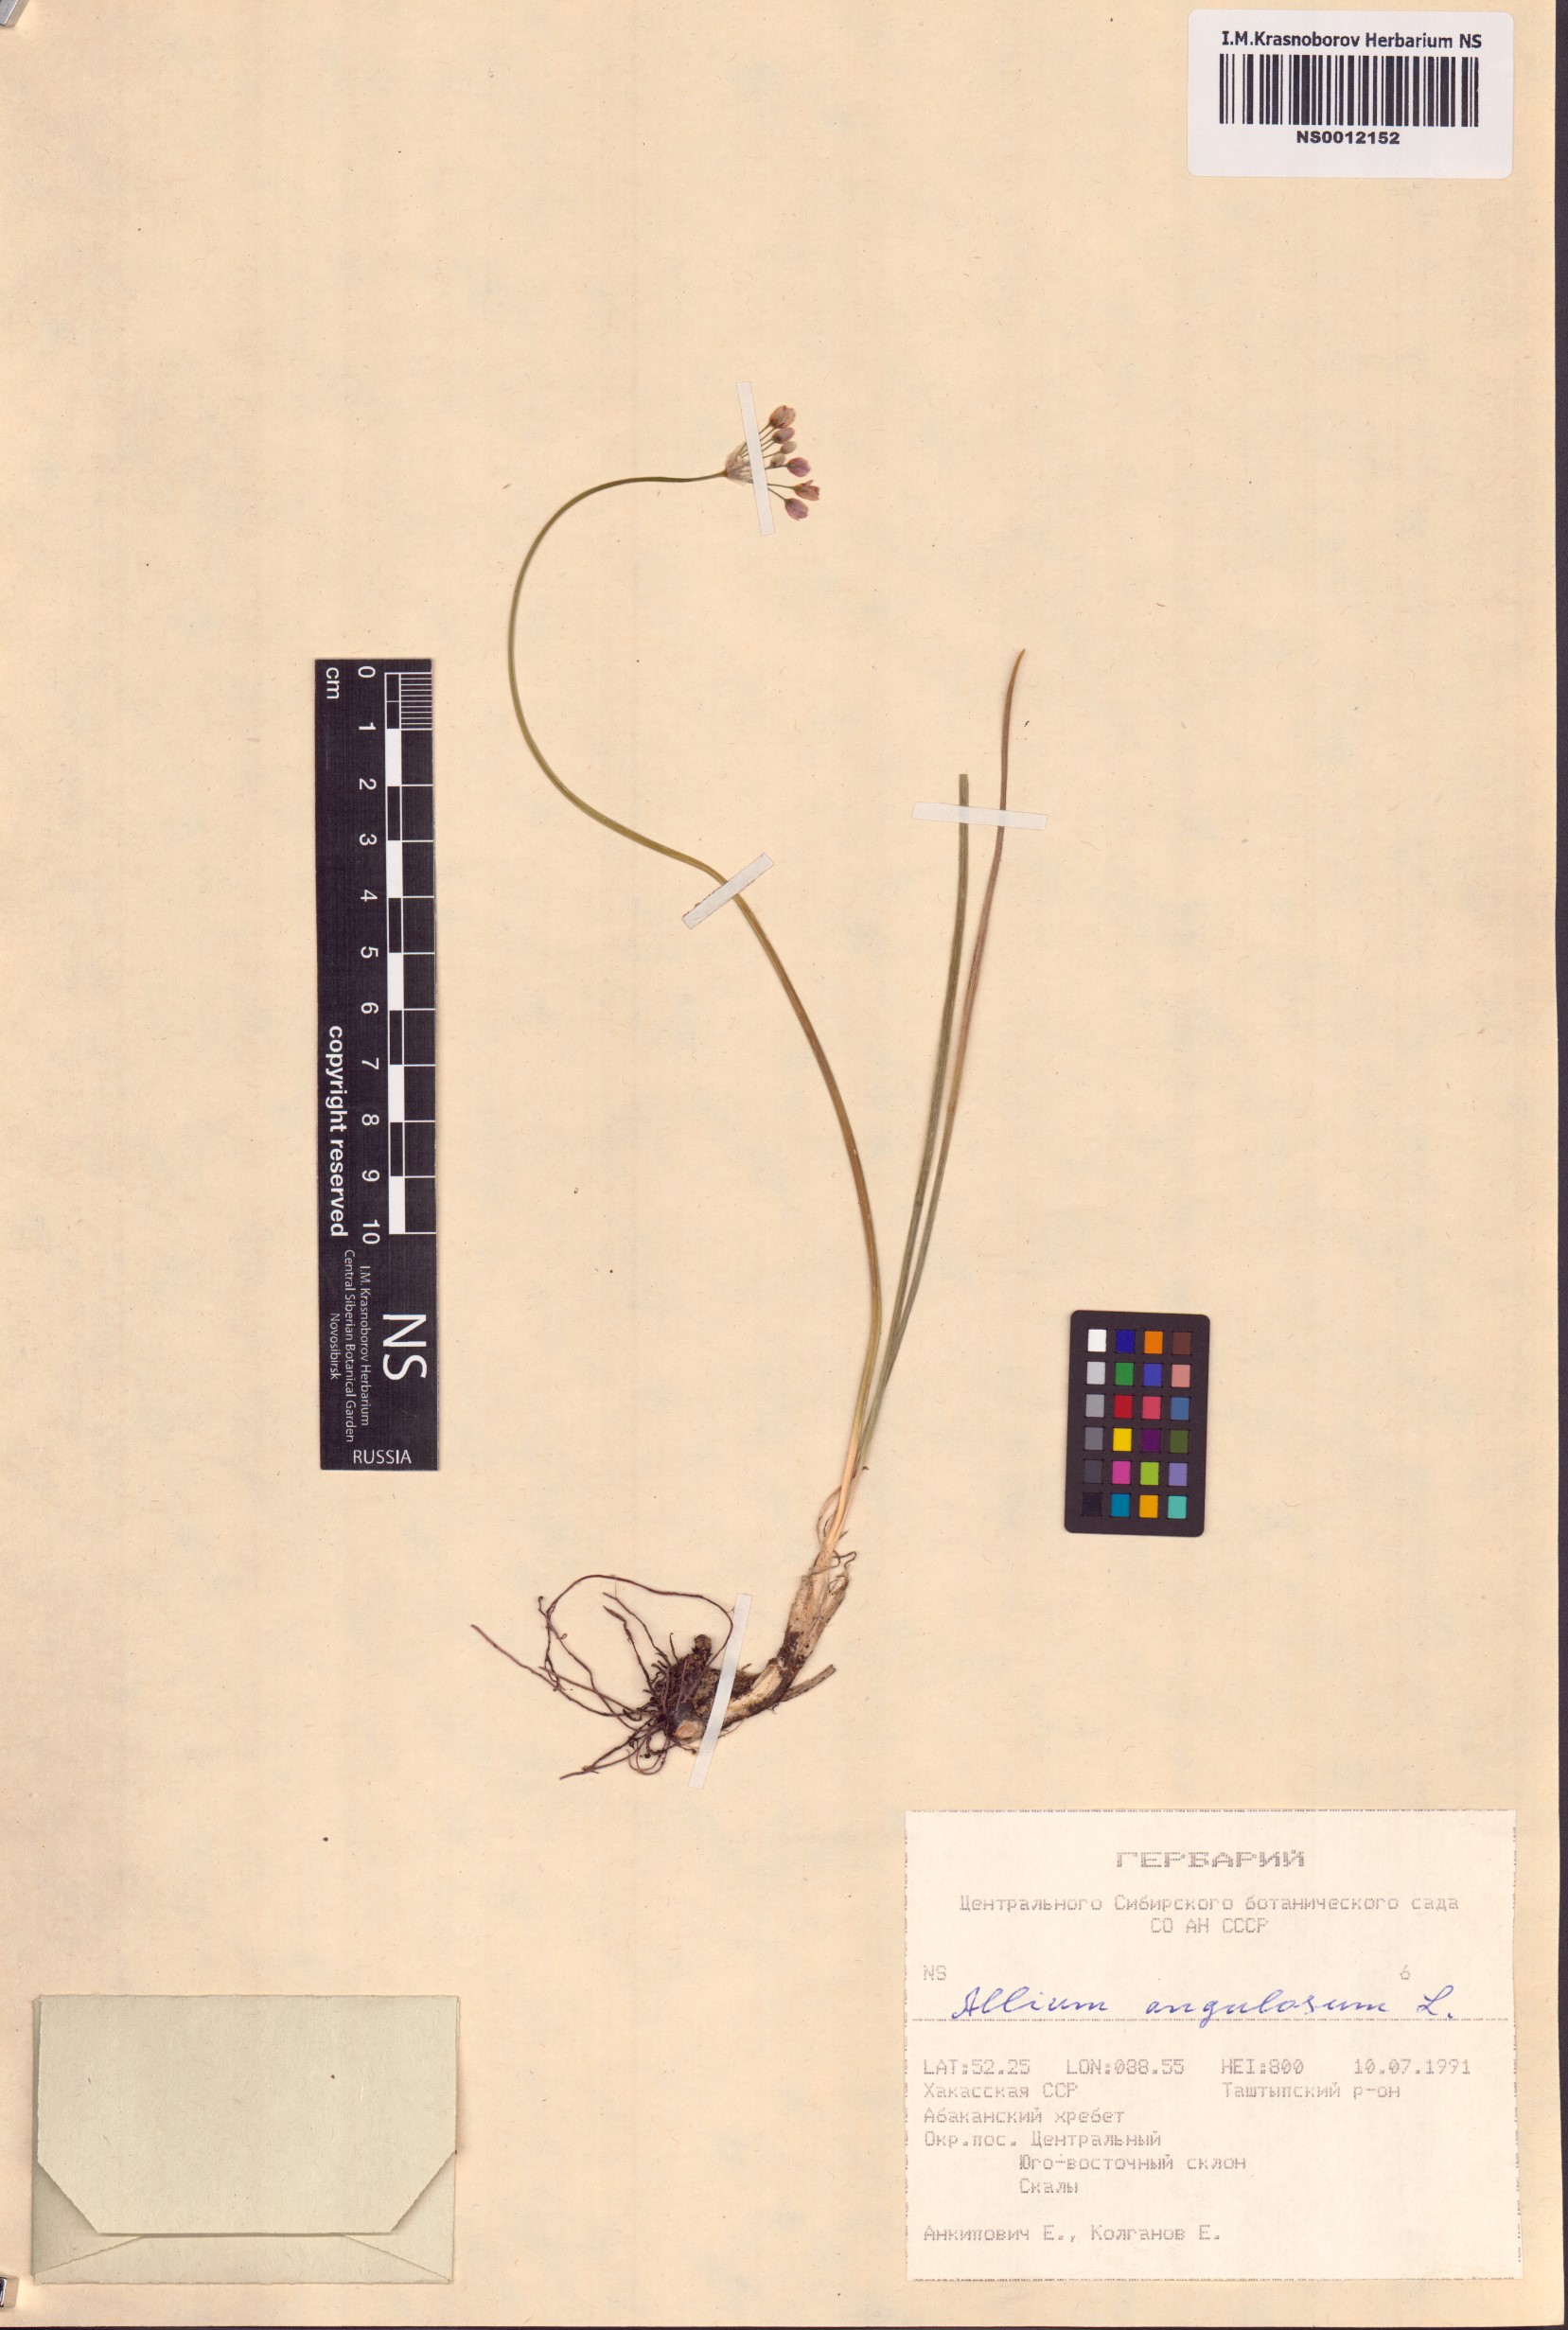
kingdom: Plantae
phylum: Tracheophyta
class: Liliopsida
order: Asparagales
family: Amaryllidaceae
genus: Allium
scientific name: Allium angulosum
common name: Mouse garlic
